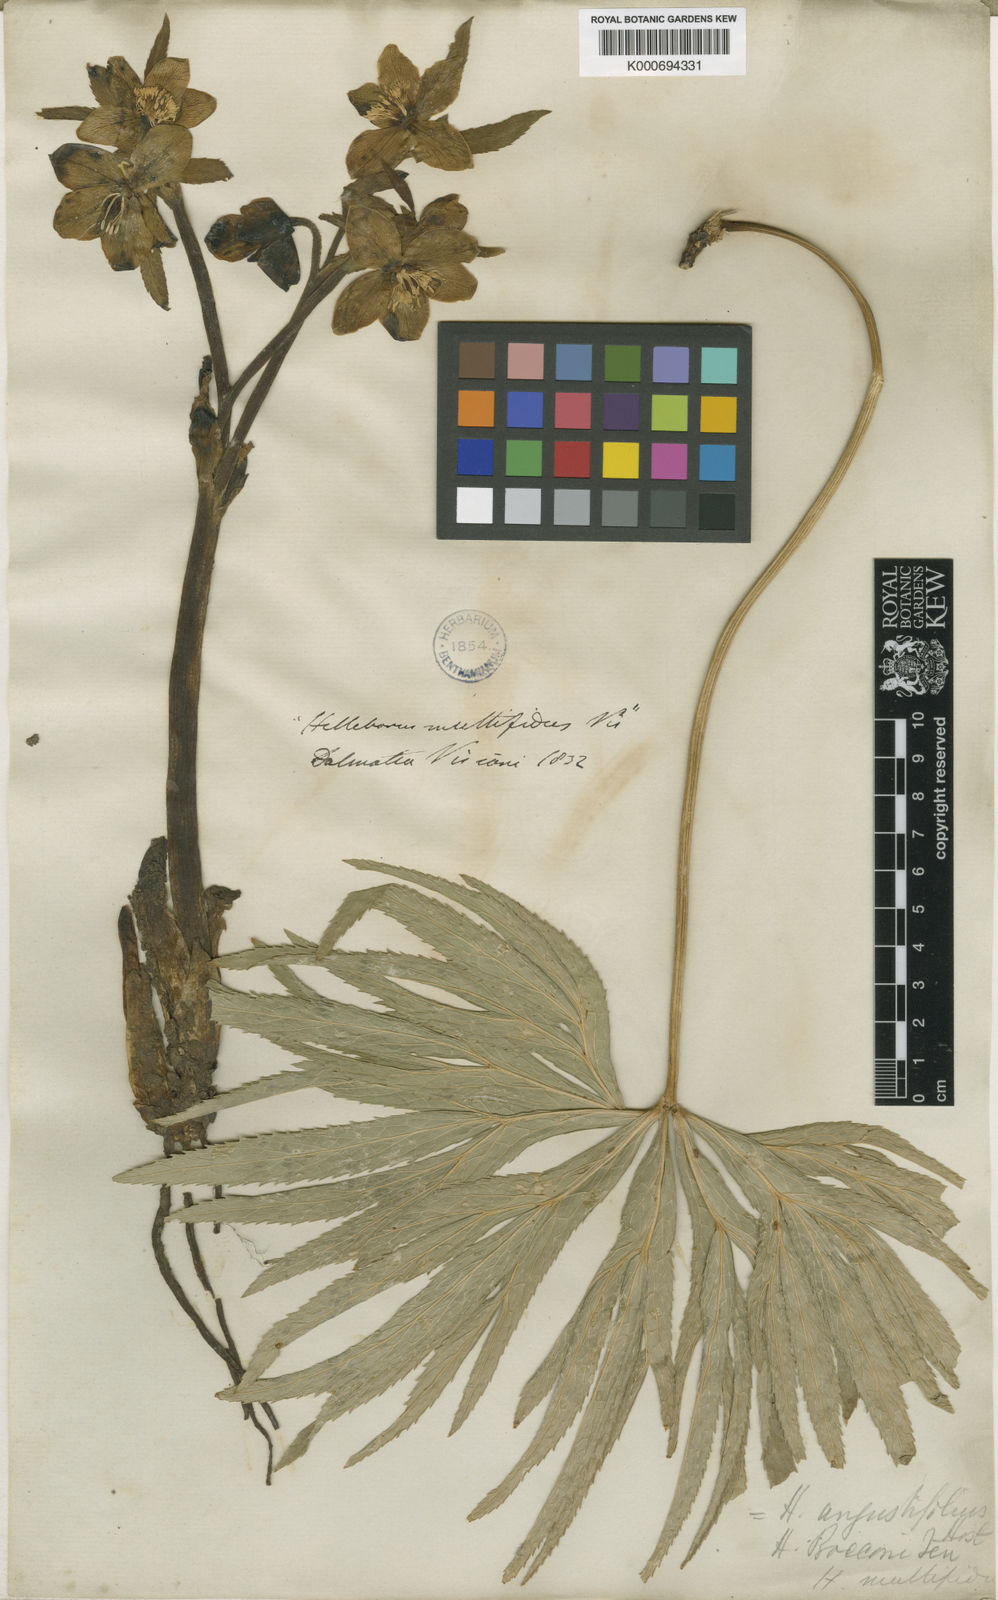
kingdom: Plantae
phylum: Tracheophyta
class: Magnoliopsida
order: Ranunculales
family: Ranunculaceae
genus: Helleborus
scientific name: Helleborus multifidus
